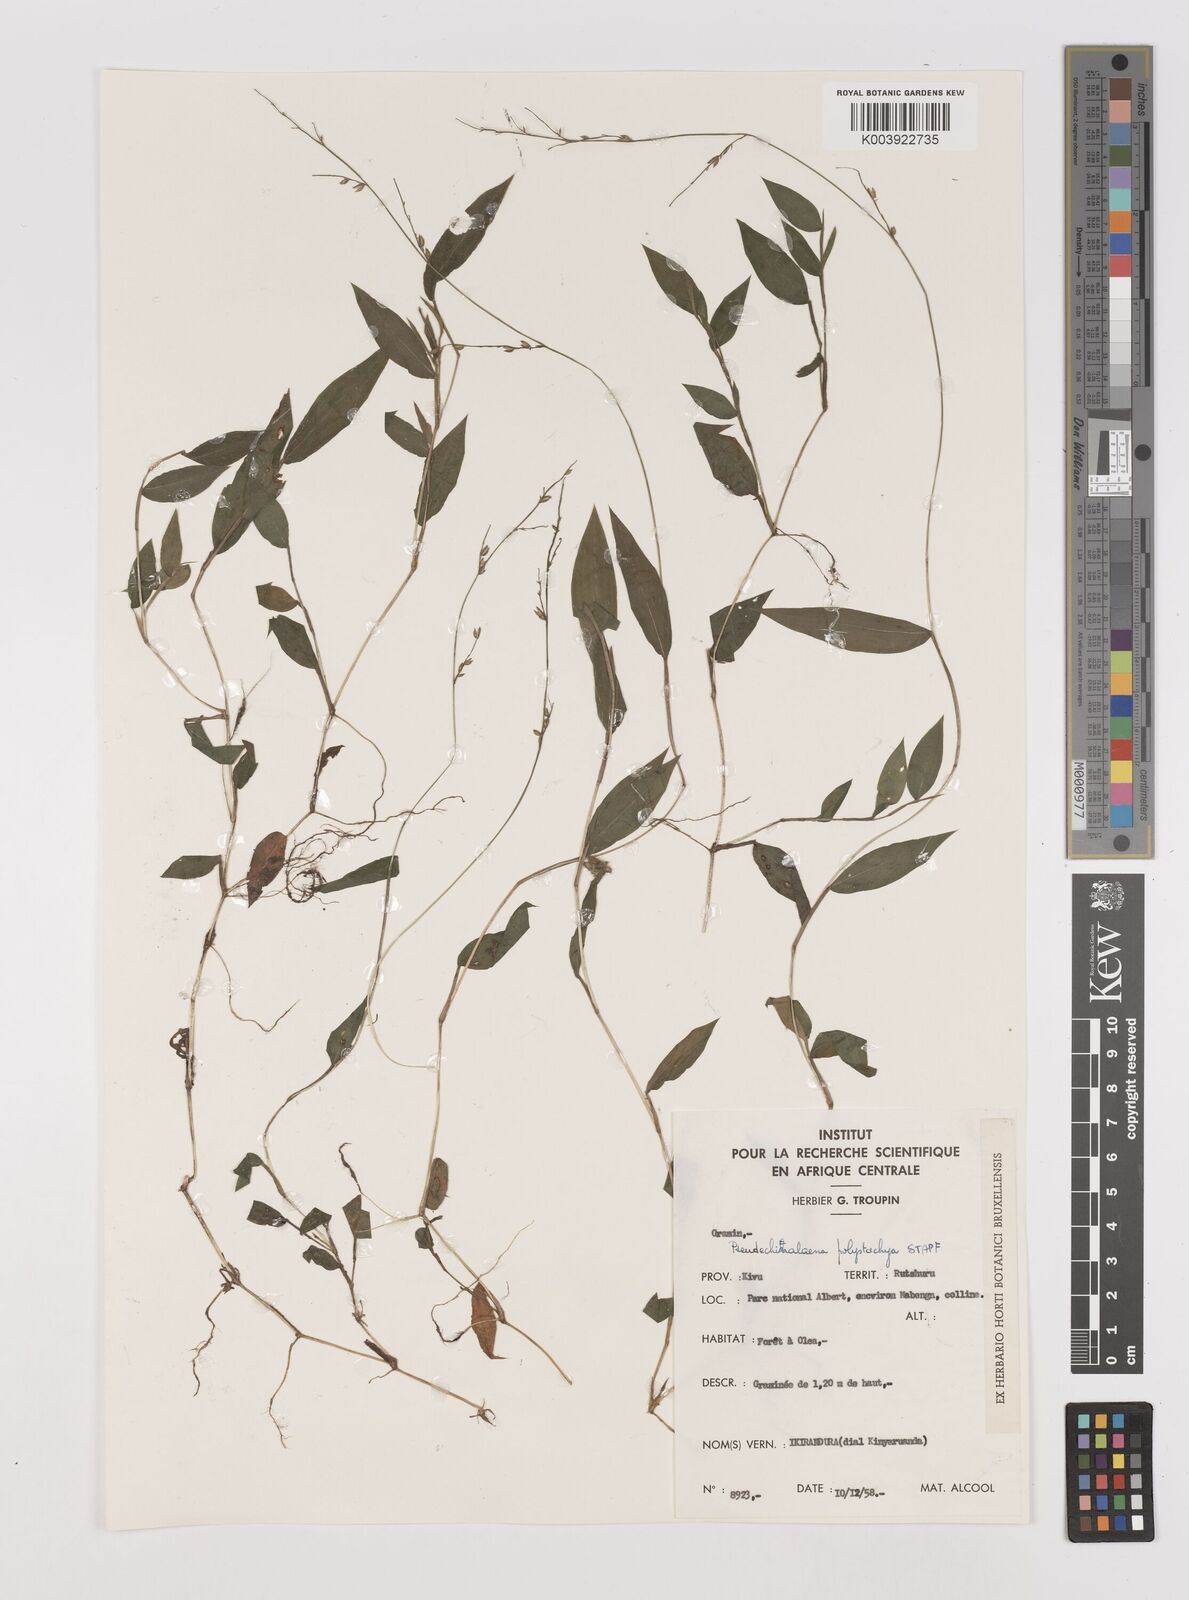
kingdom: Plantae
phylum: Tracheophyta
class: Liliopsida
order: Poales
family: Poaceae
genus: Pseudechinolaena
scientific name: Pseudechinolaena polystachya
